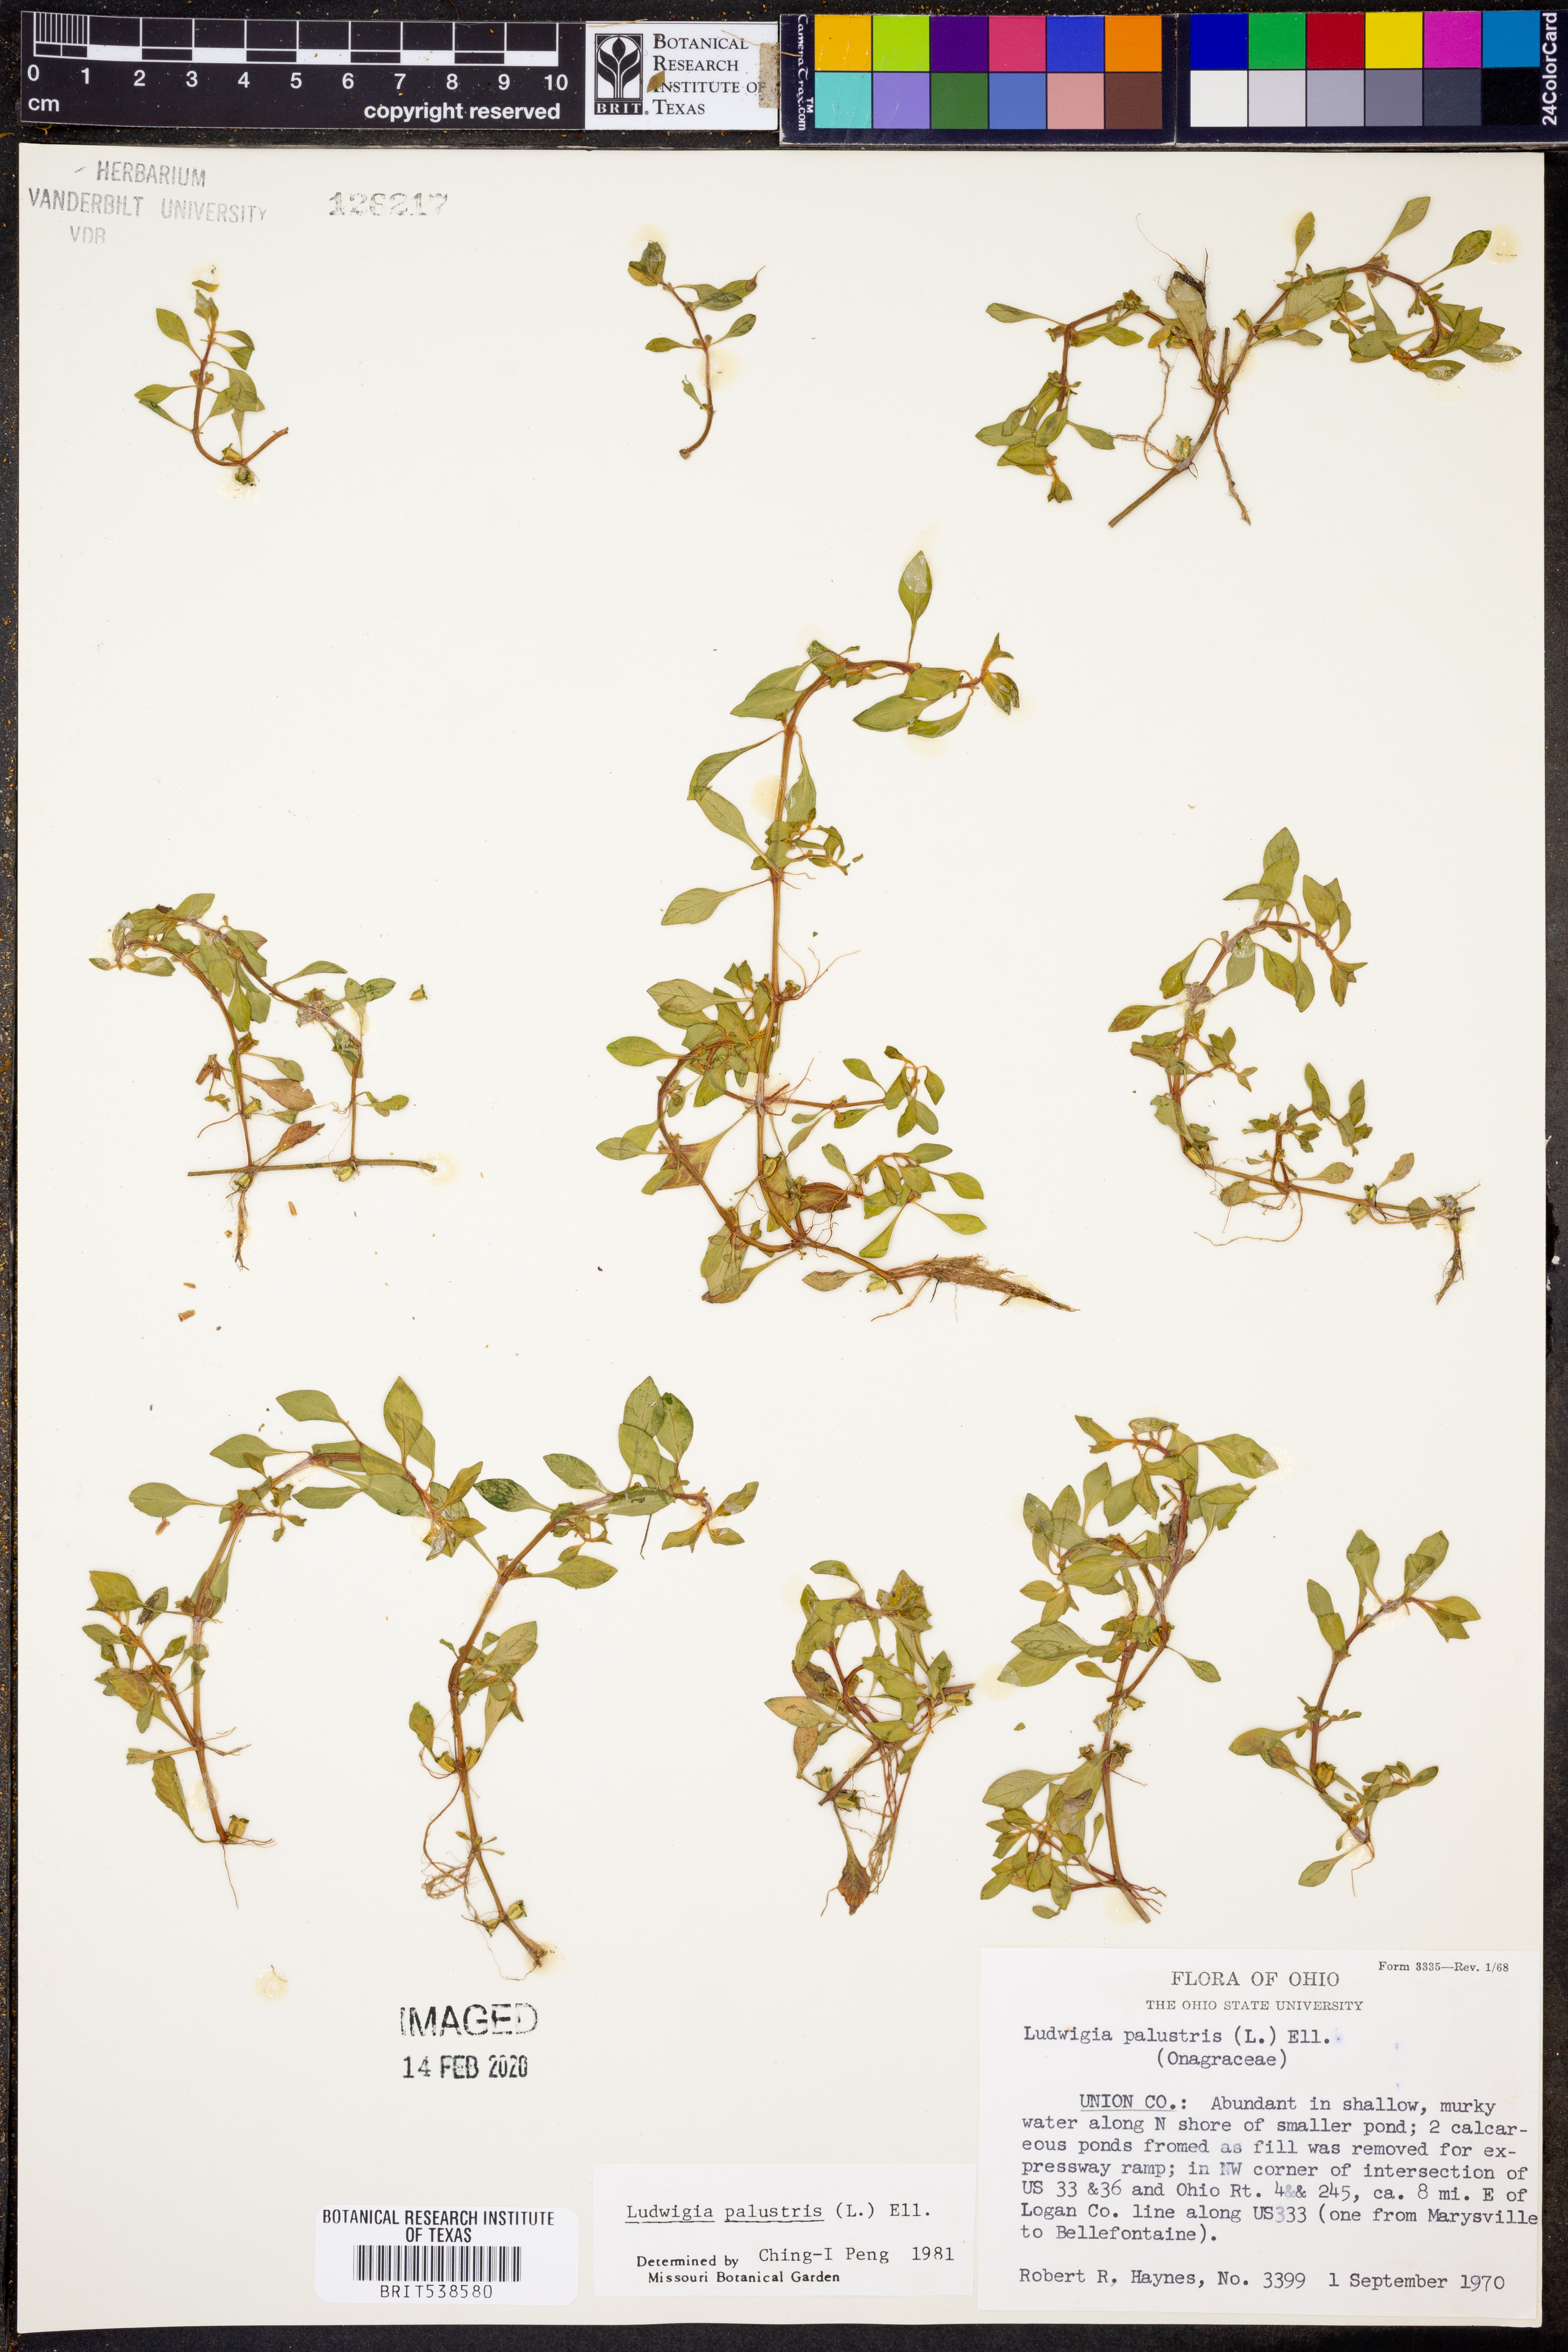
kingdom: Plantae
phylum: Tracheophyta
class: Magnoliopsida
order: Myrtales
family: Onagraceae
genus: Ludwigia
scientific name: Ludwigia palustris
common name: Hampshire-purslane
